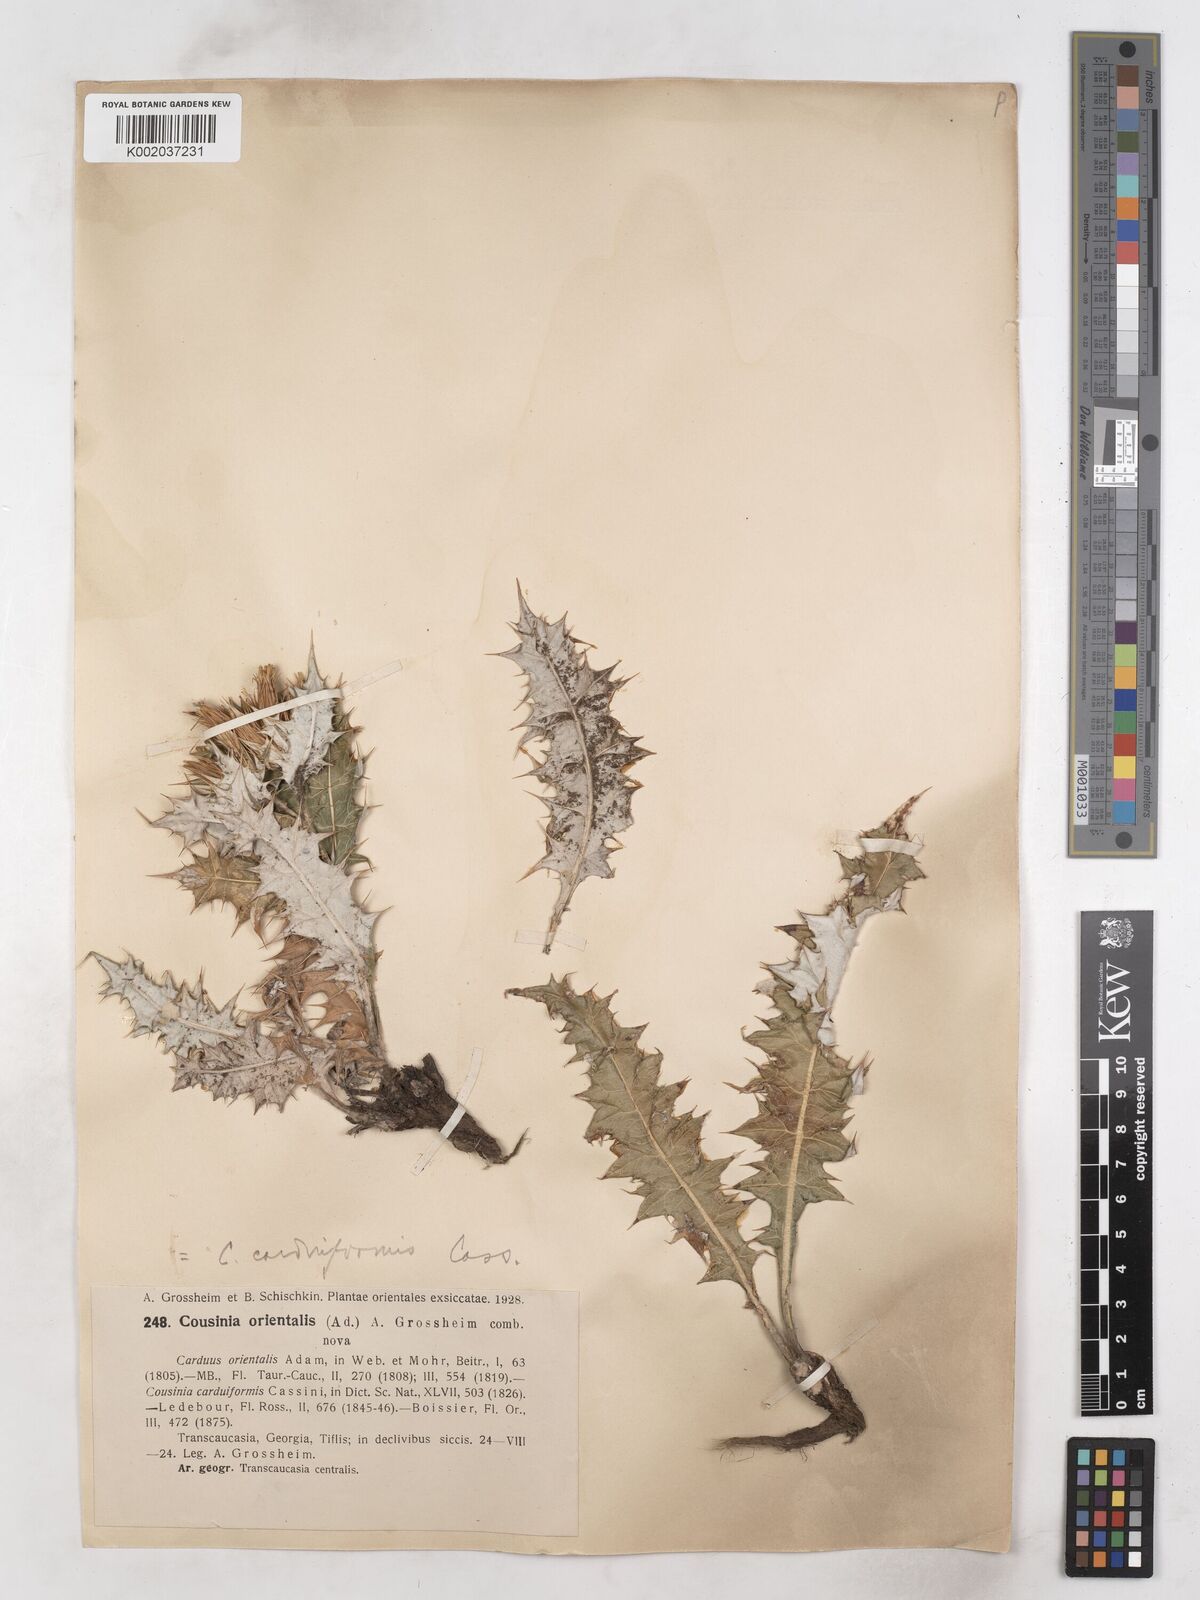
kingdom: Plantae
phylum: Tracheophyta
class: Magnoliopsida
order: Asterales
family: Asteraceae
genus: Cousinia
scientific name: Cousinia
